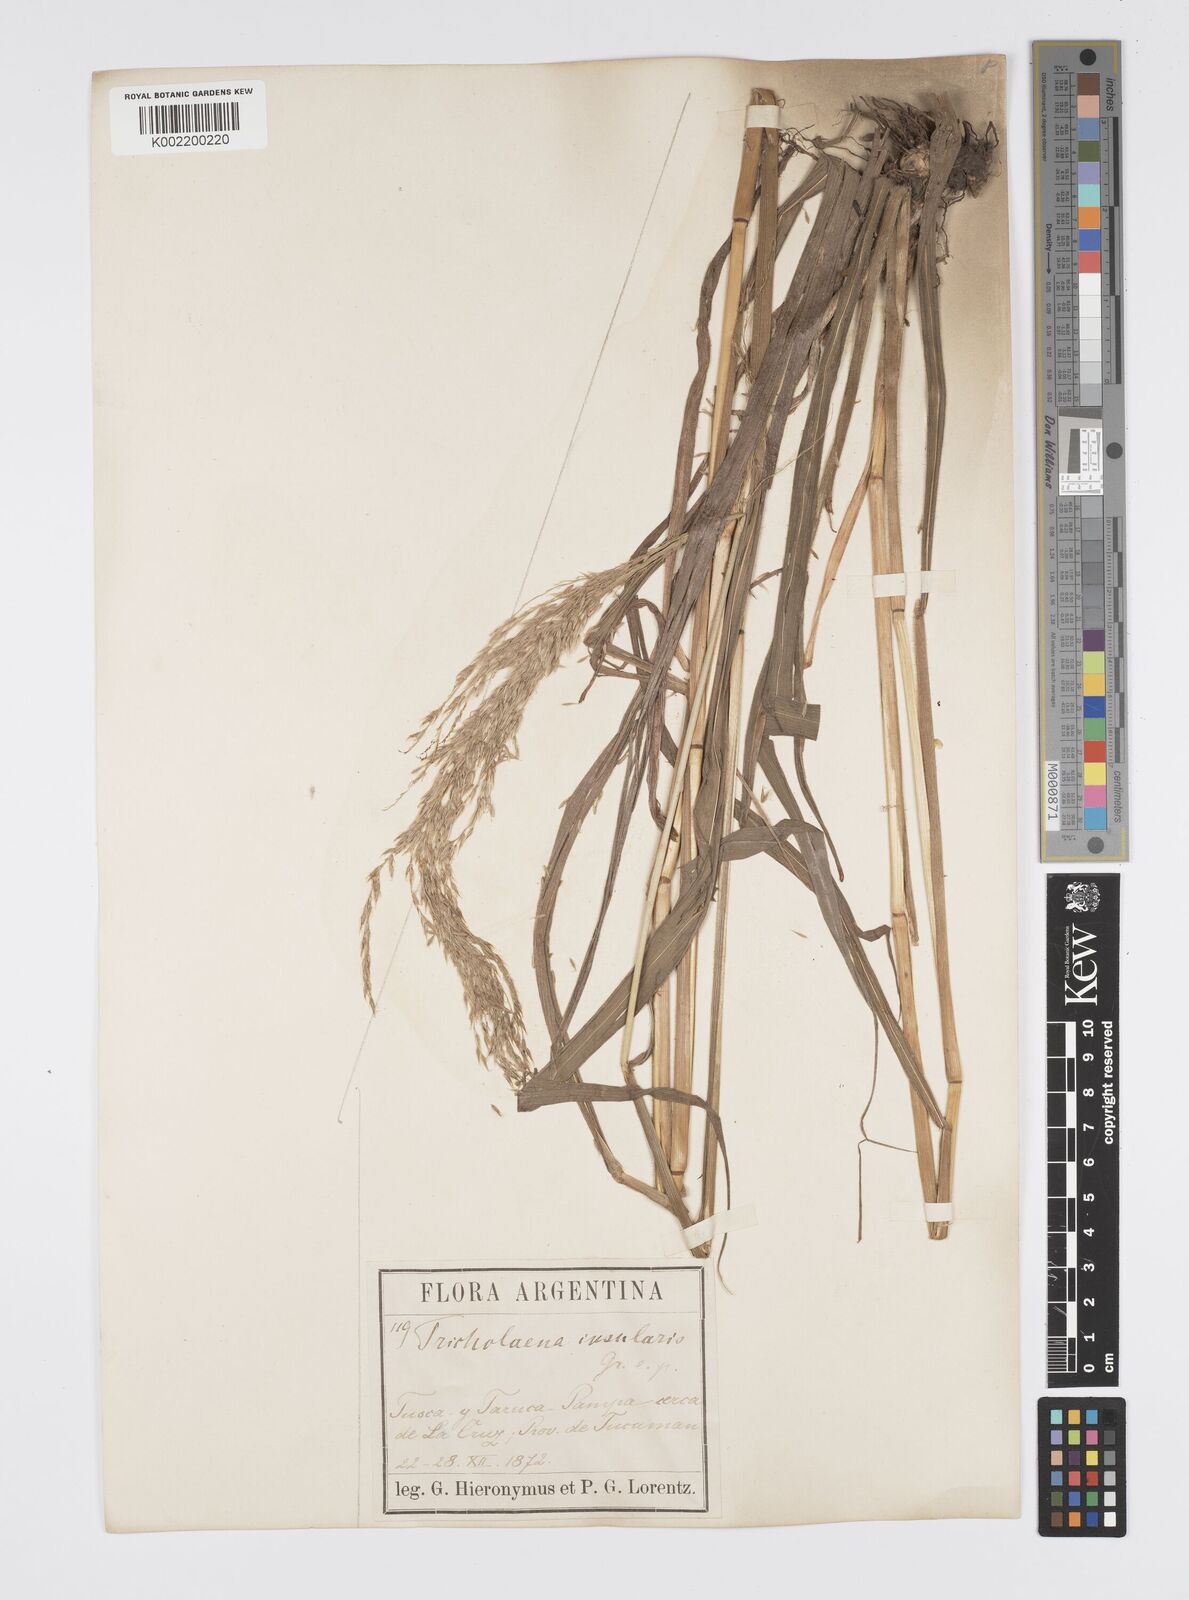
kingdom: Plantae
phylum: Tracheophyta
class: Liliopsida
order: Poales
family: Poaceae
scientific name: Poaceae
